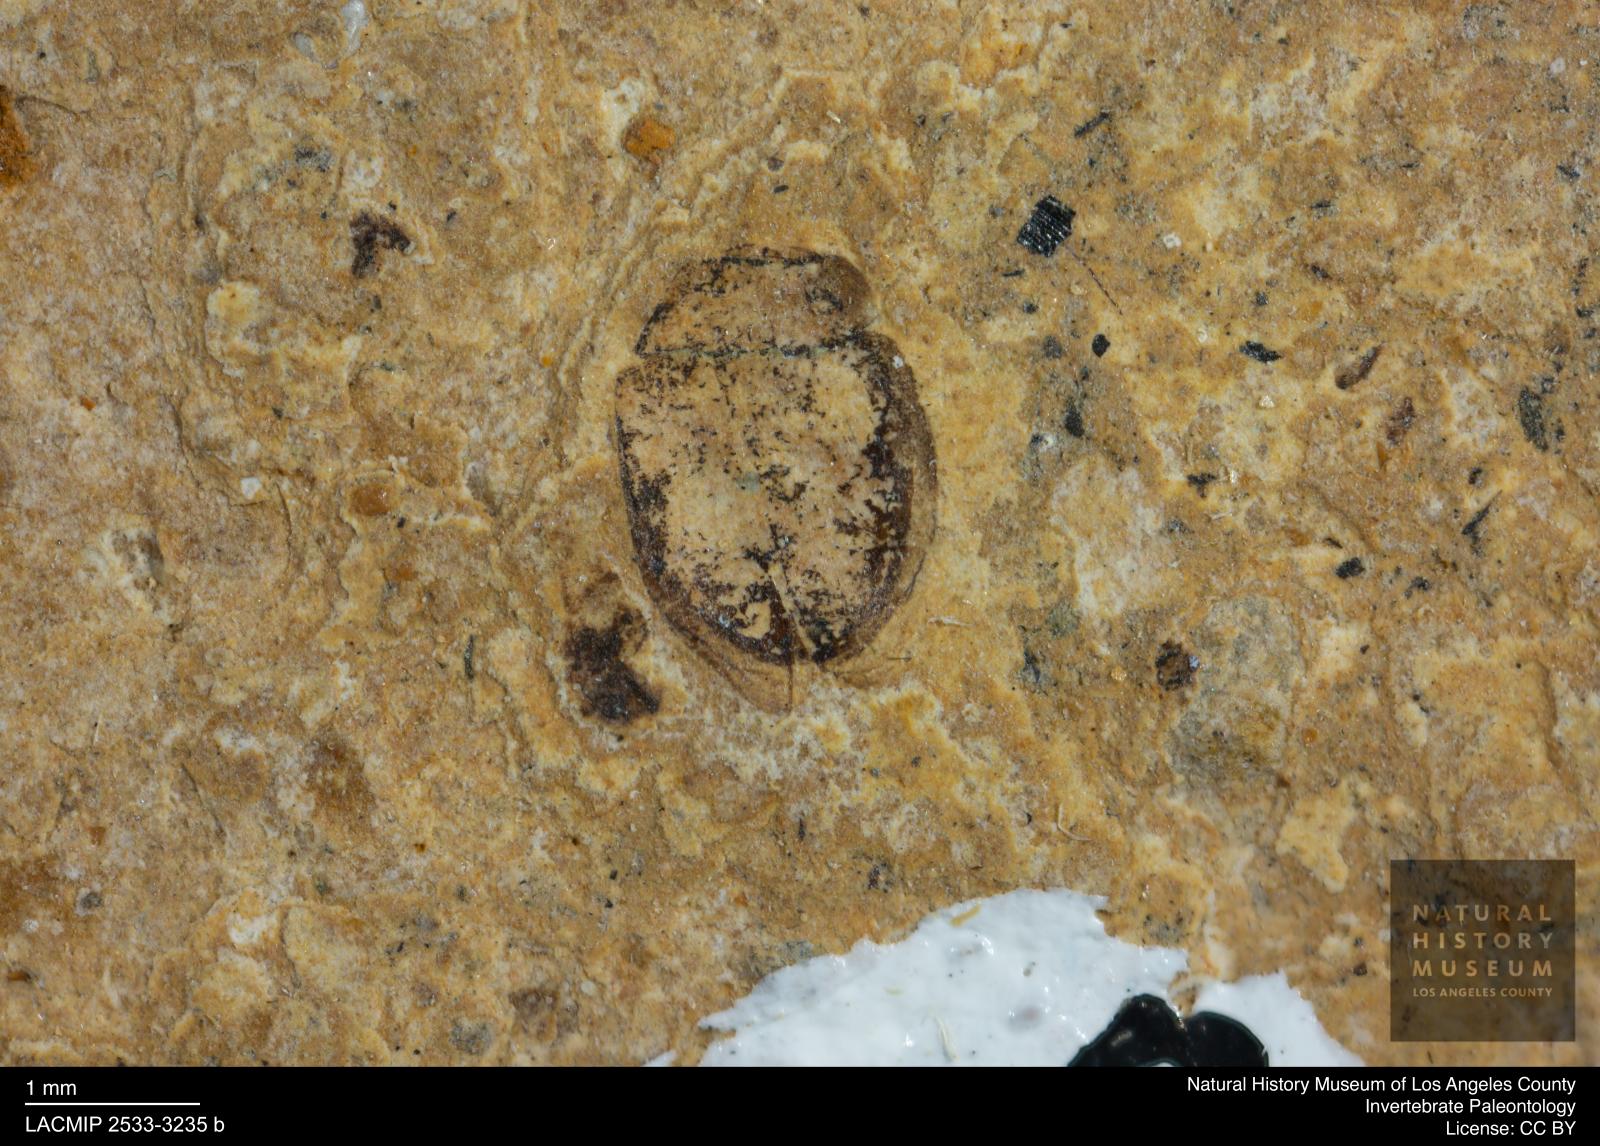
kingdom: Animalia
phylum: Arthropoda
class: Insecta
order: Coleoptera
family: Hydrophilidae
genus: Paracymus
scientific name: Paracymus excitatus
